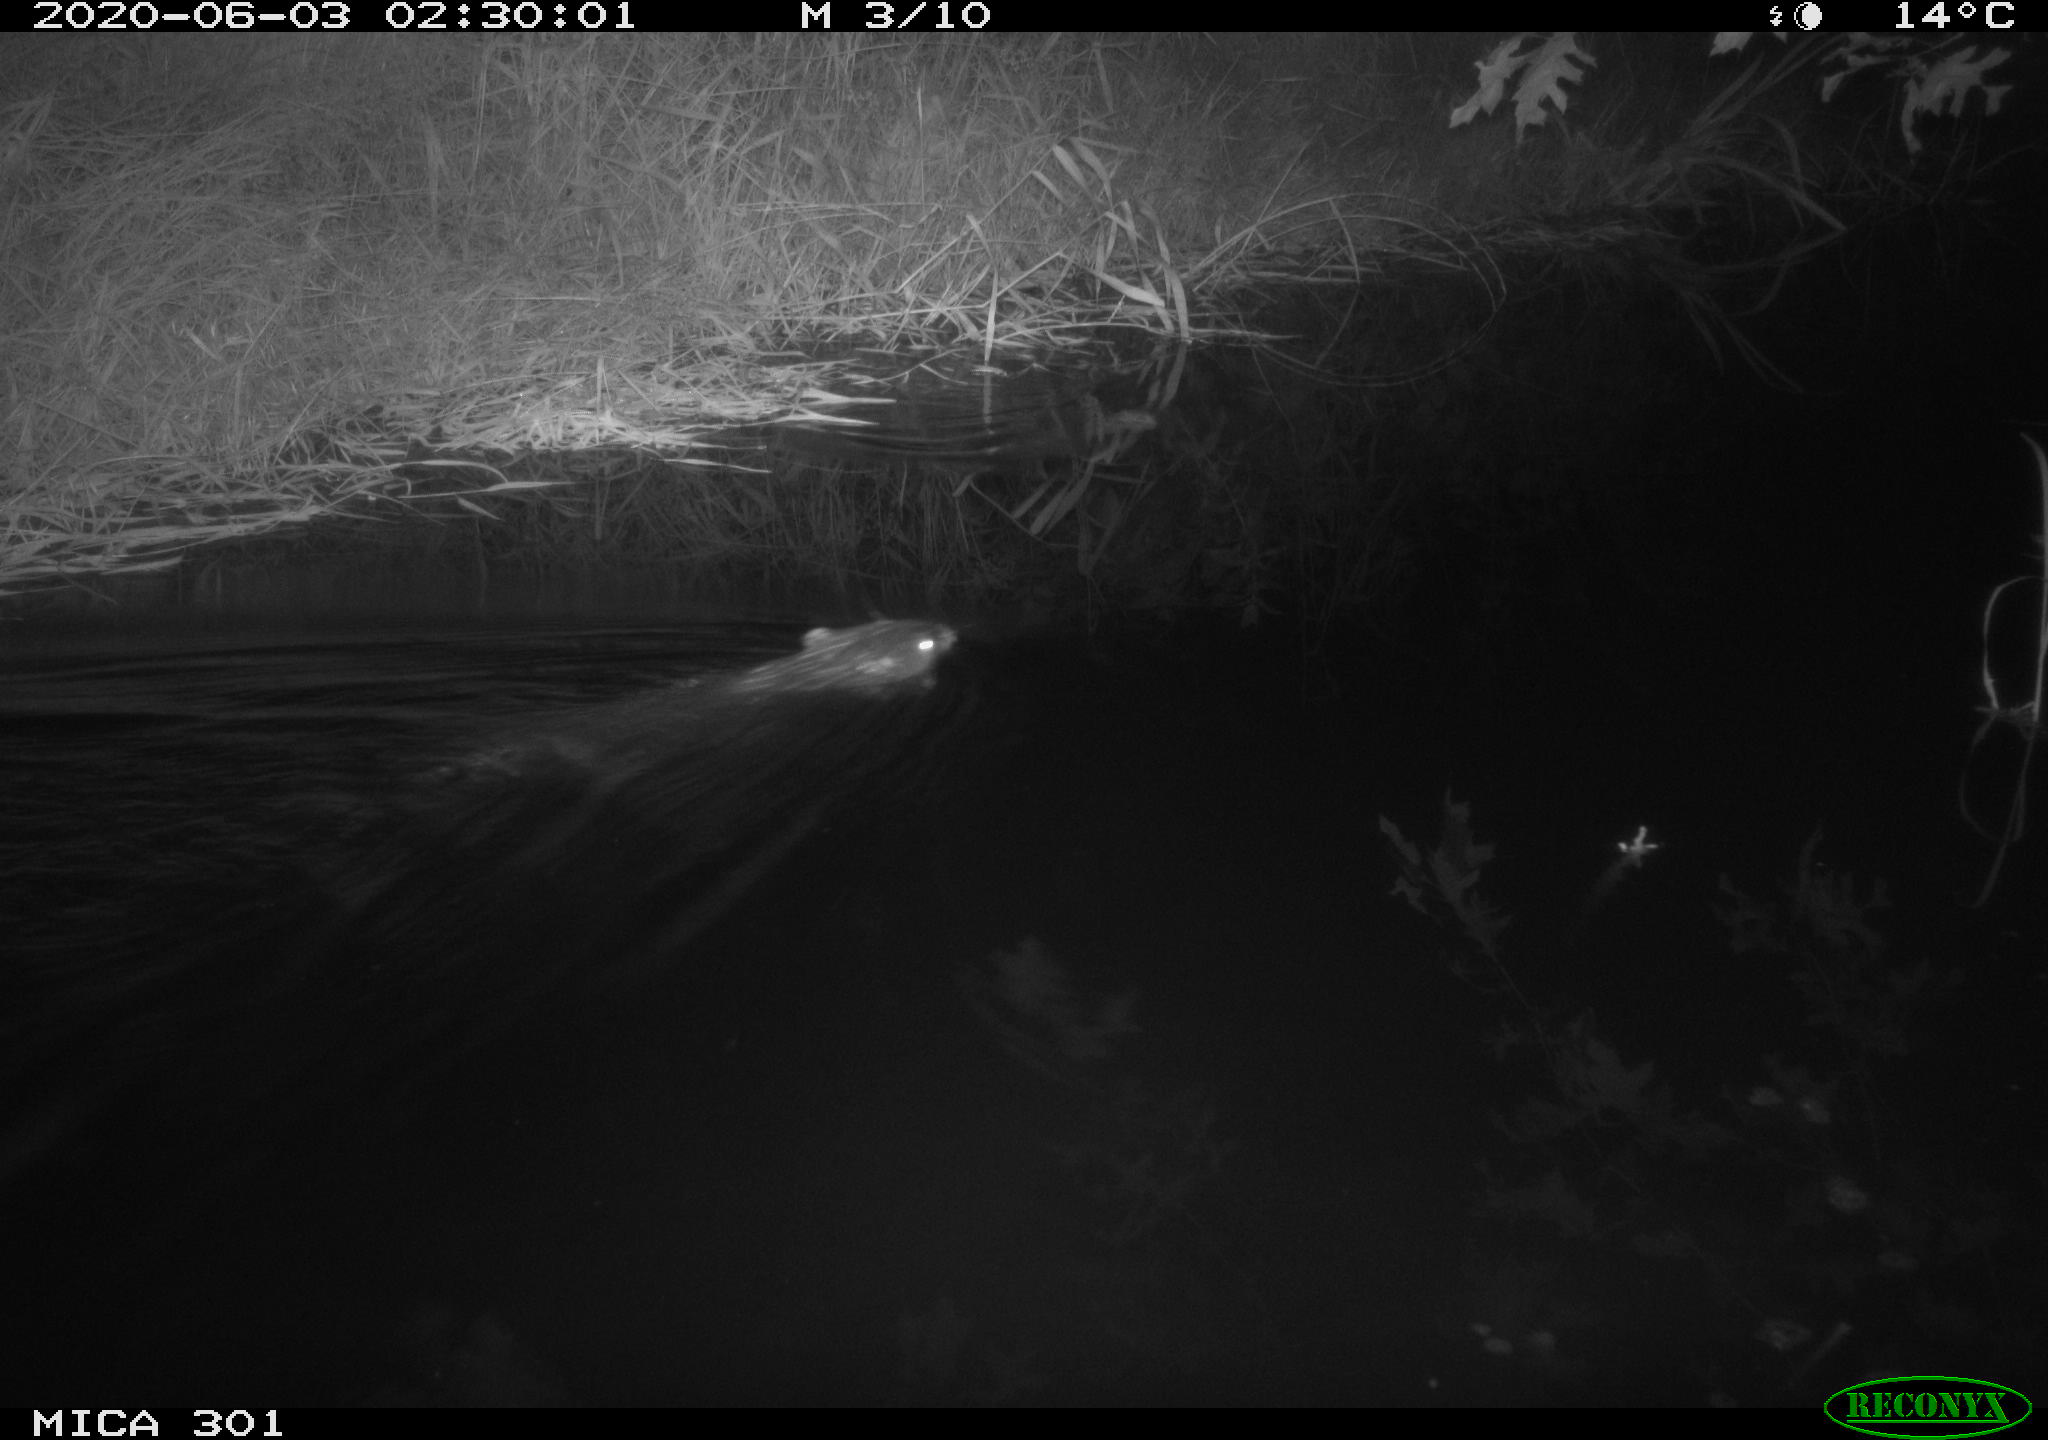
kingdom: Animalia
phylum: Chordata
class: Mammalia
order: Rodentia
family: Castoridae
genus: Castor
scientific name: Castor fiber
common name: Eurasian beaver
